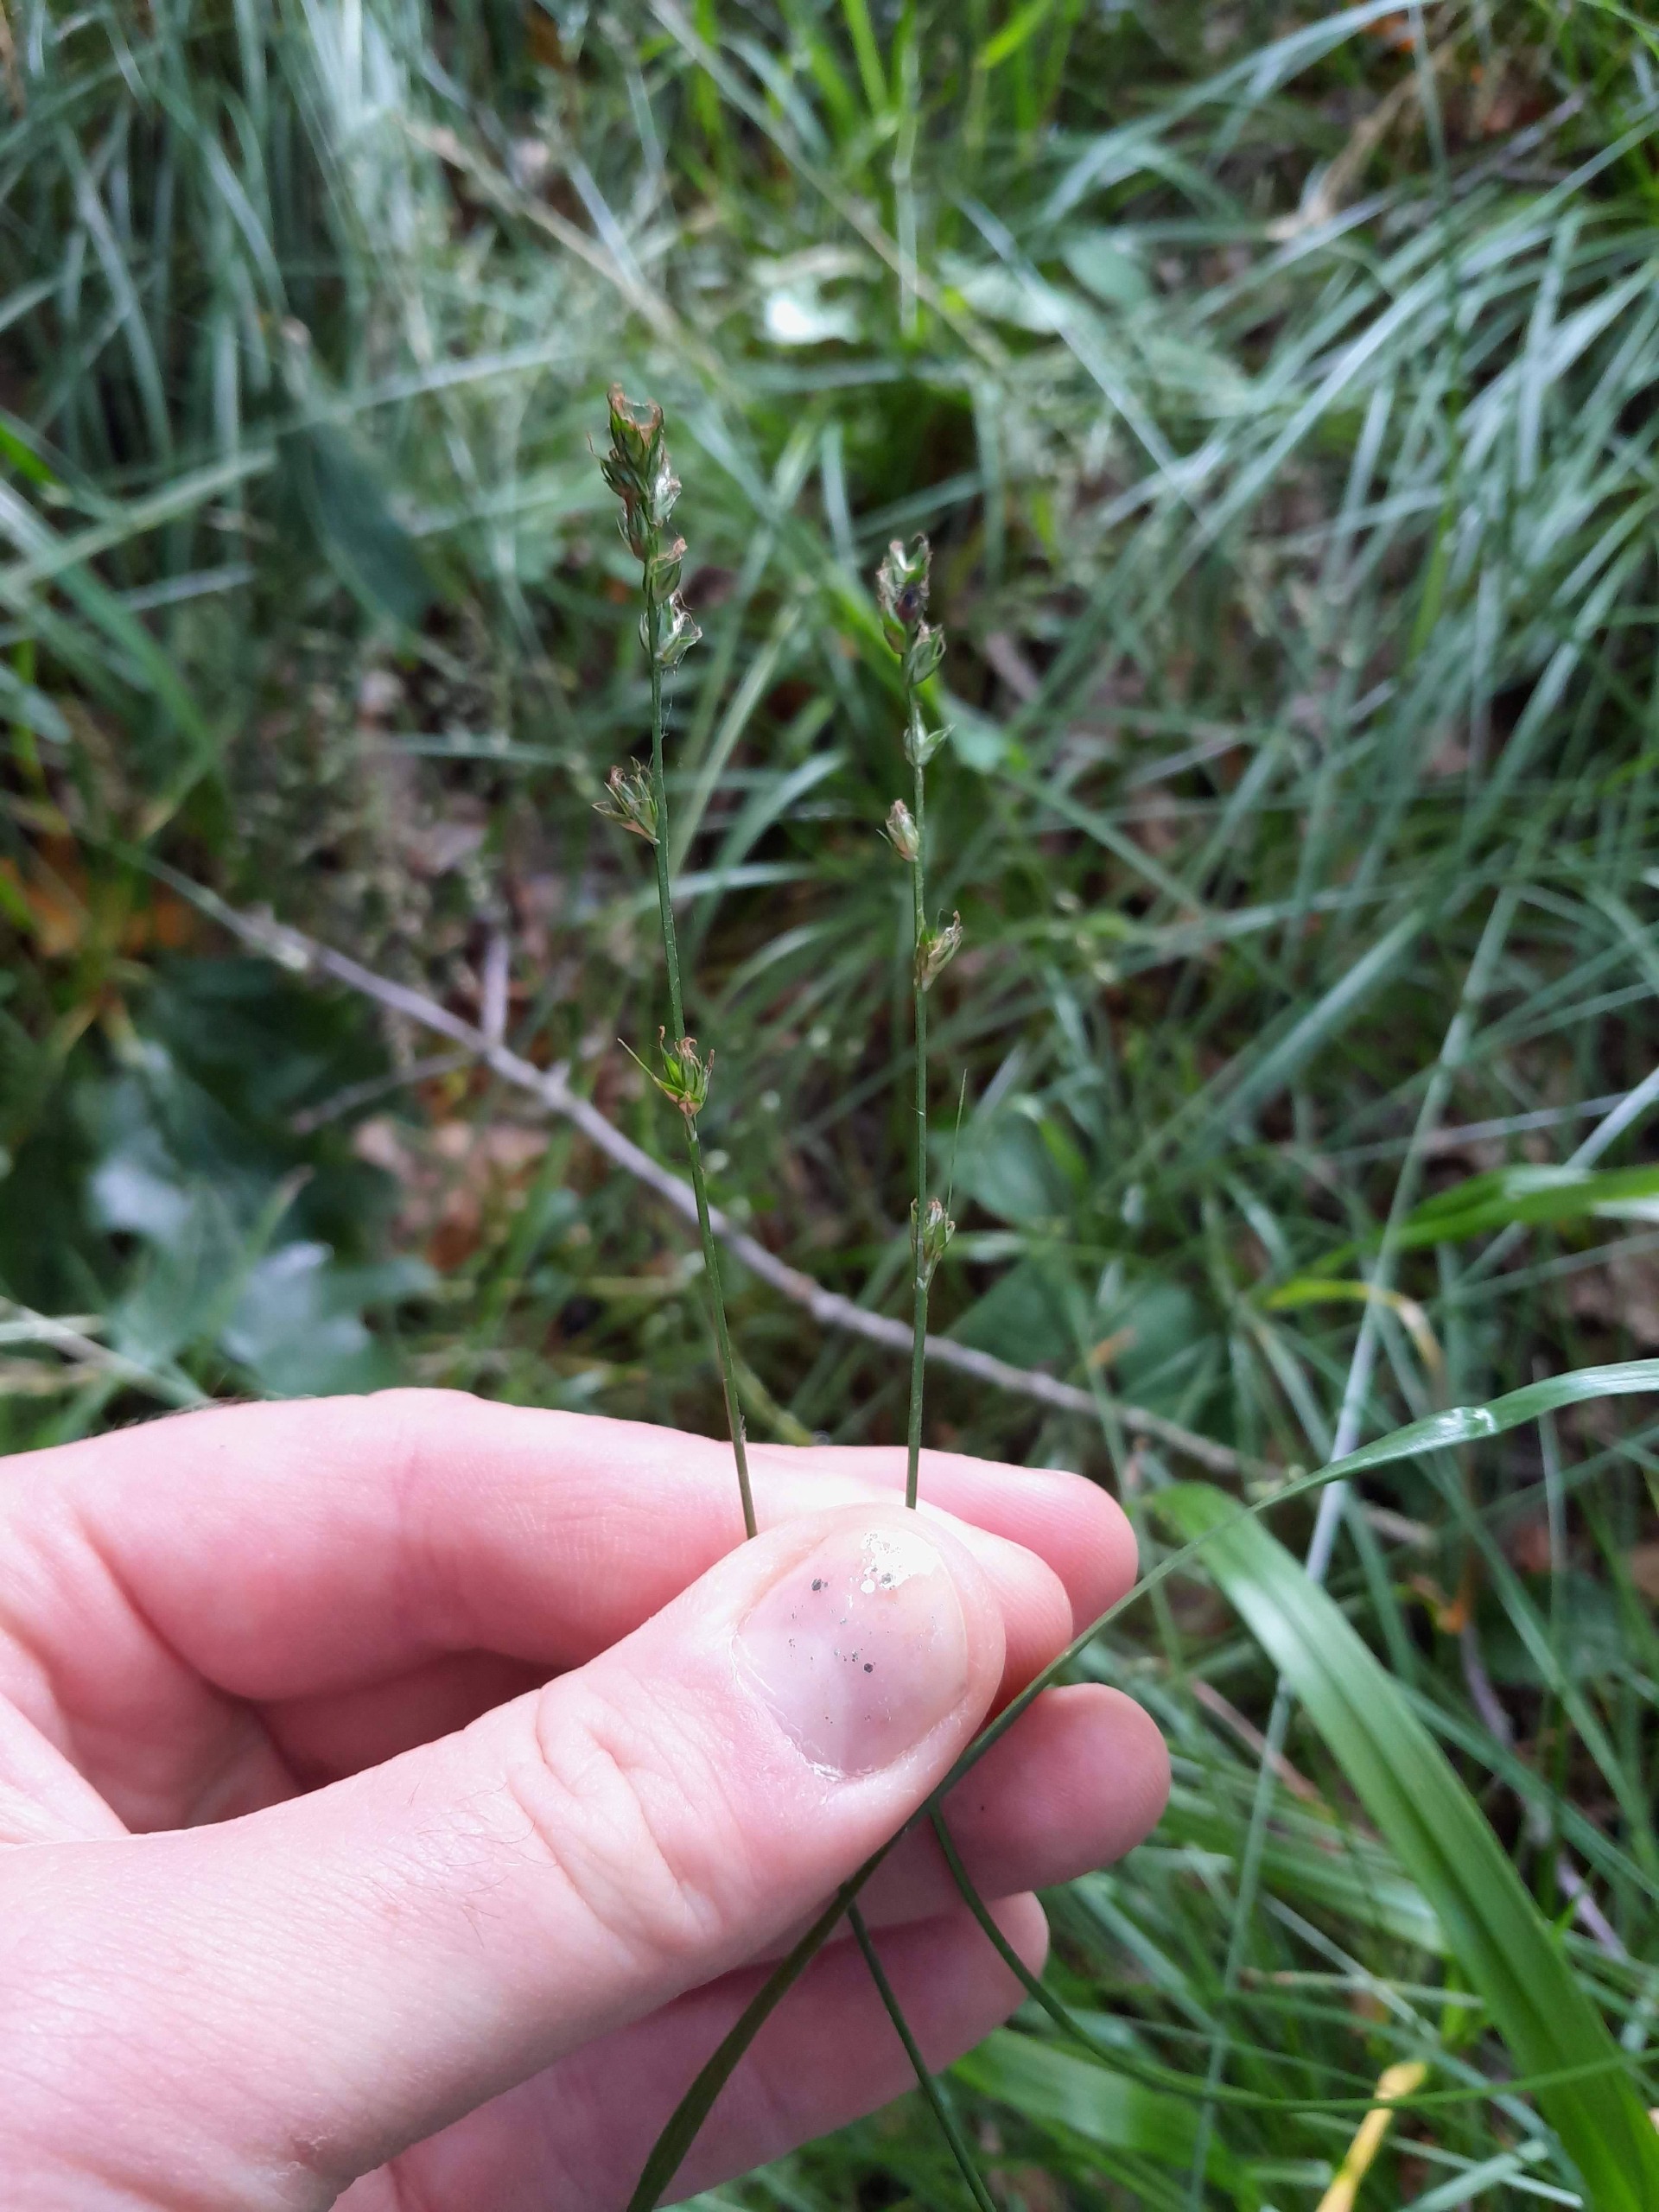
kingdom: Plantae
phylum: Tracheophyta
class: Liliopsida
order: Poales
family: Cyperaceae
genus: Carex
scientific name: Carex divulsa
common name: Mellembrudt star
